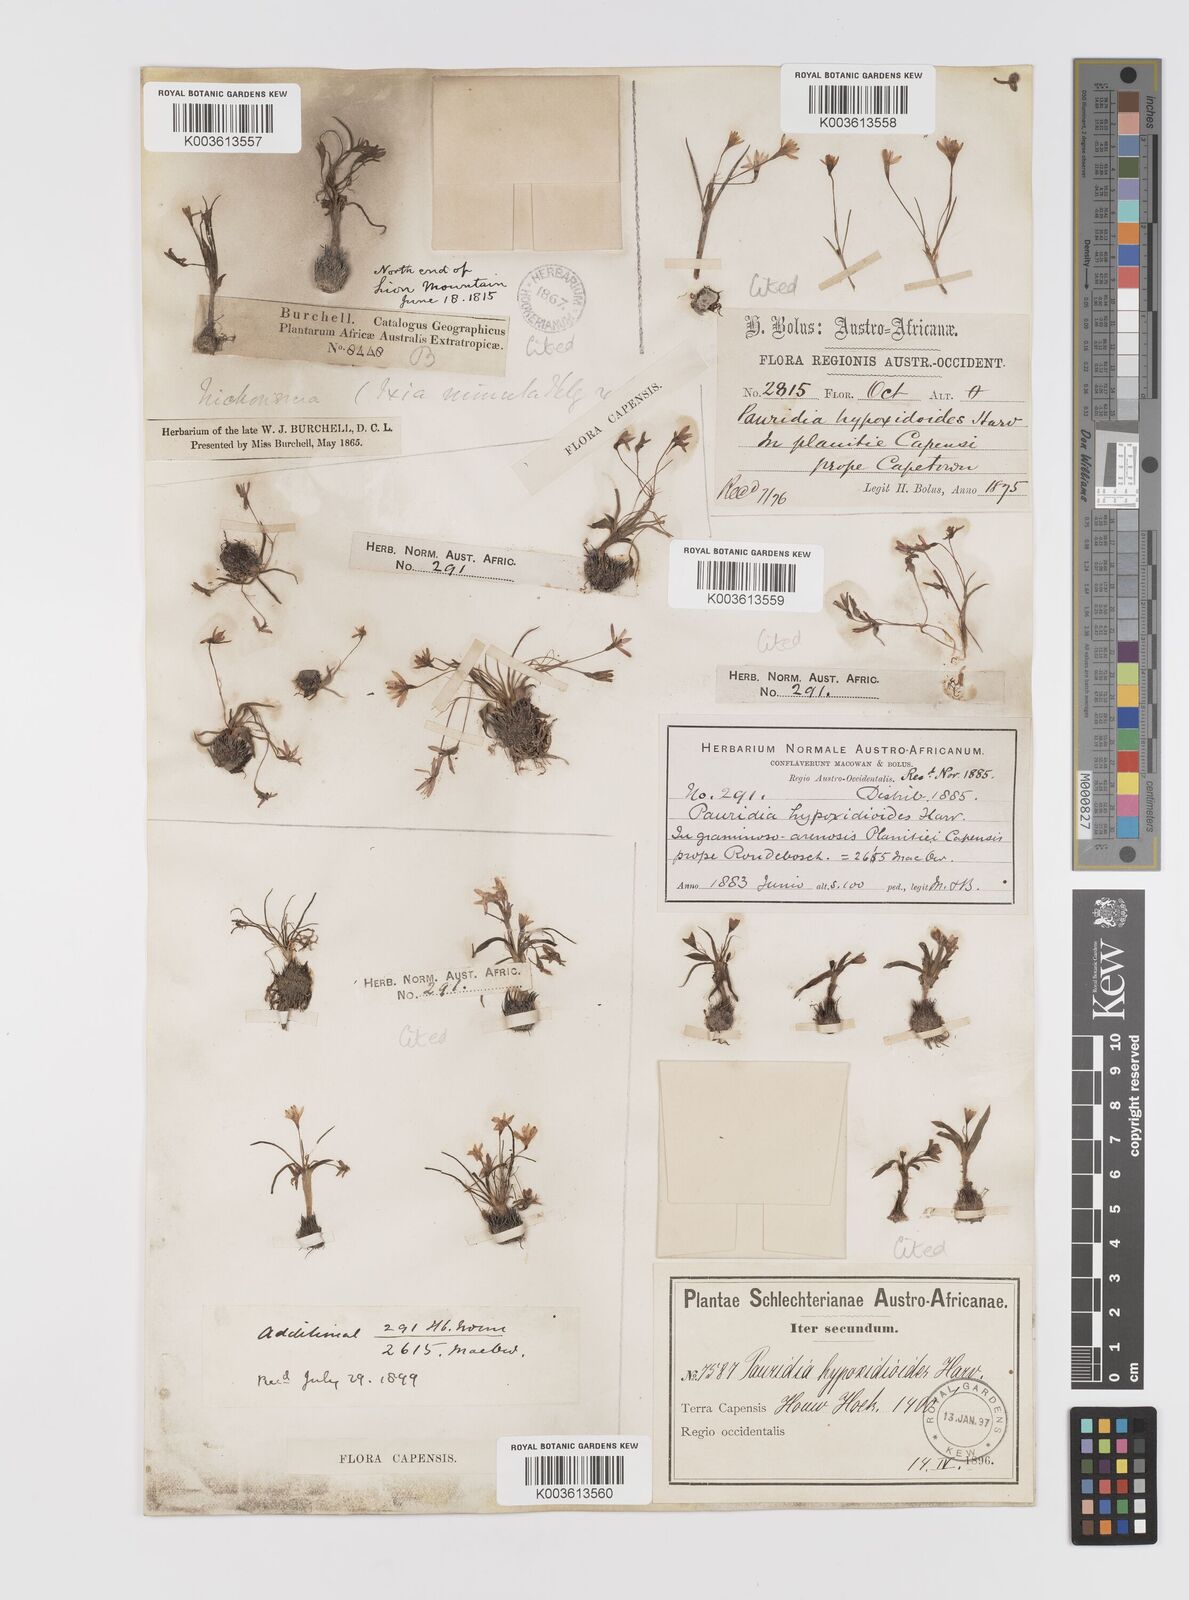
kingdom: Plantae
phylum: Tracheophyta
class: Liliopsida
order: Asparagales
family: Hypoxidaceae
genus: Pauridia
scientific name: Pauridia minuta
